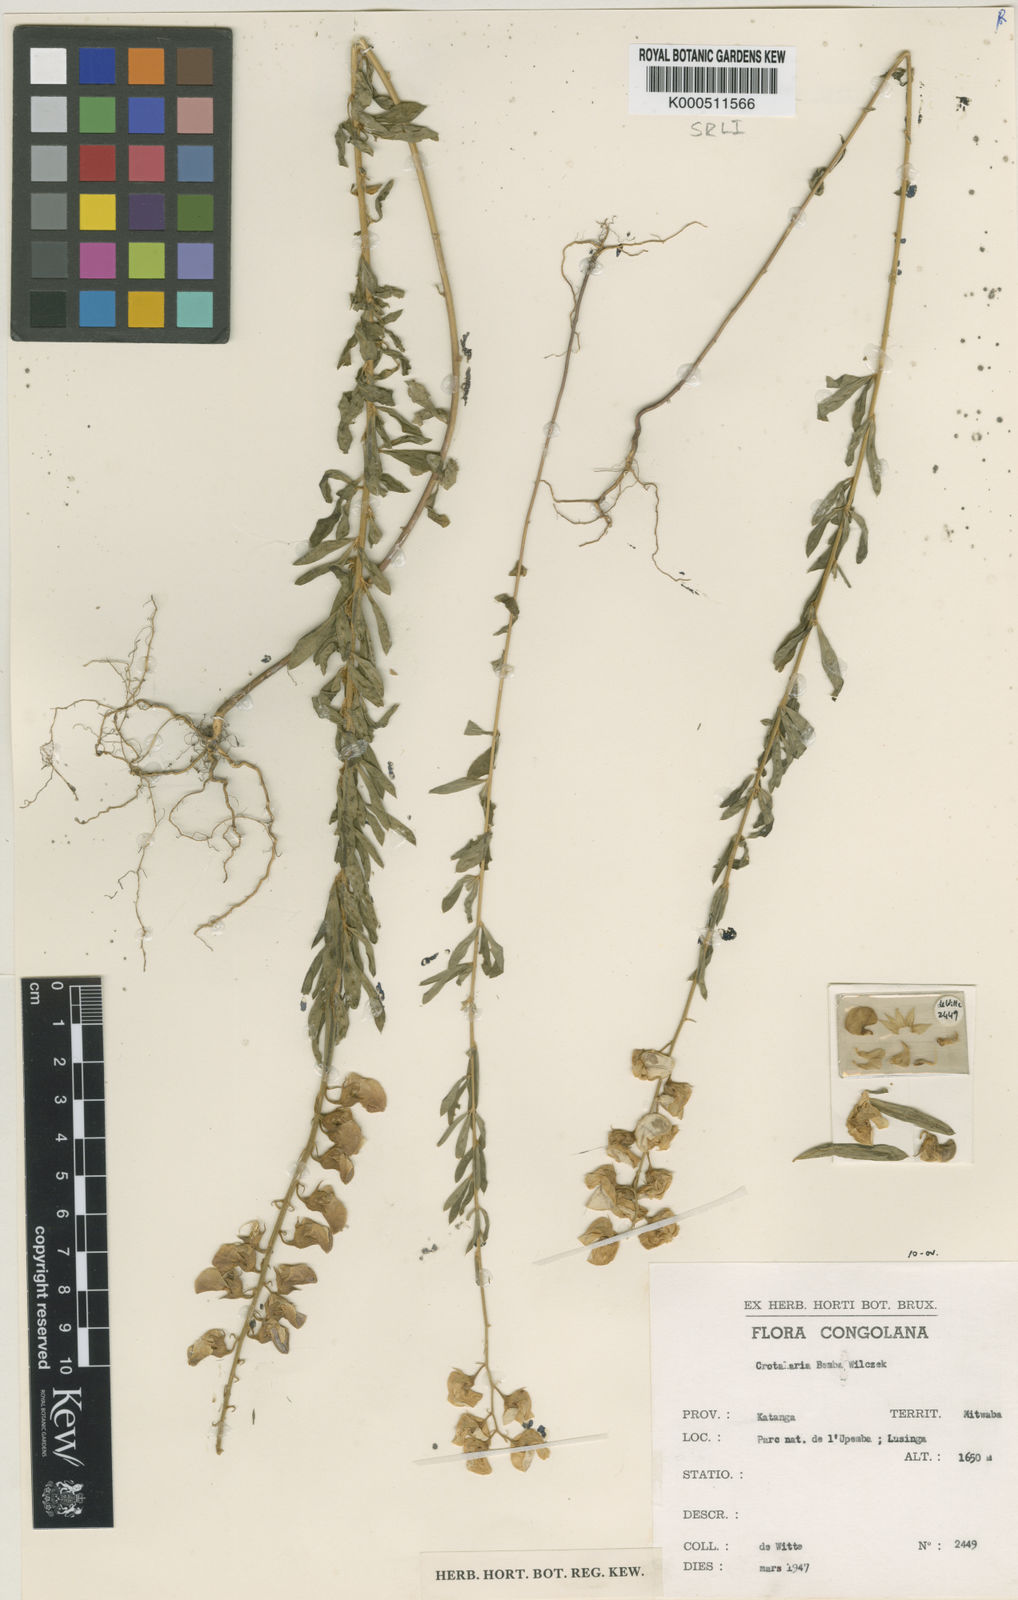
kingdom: Plantae
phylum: Tracheophyta
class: Magnoliopsida
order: Fabales
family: Fabaceae
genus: Crotalaria
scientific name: Crotalaria bemba
